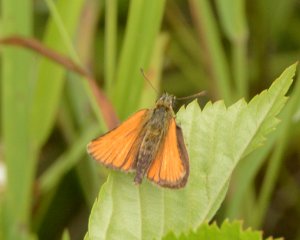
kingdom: Animalia
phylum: Arthropoda
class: Insecta
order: Lepidoptera
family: Hesperiidae
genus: Thymelicus
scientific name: Thymelicus lineola
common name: European Skipper
